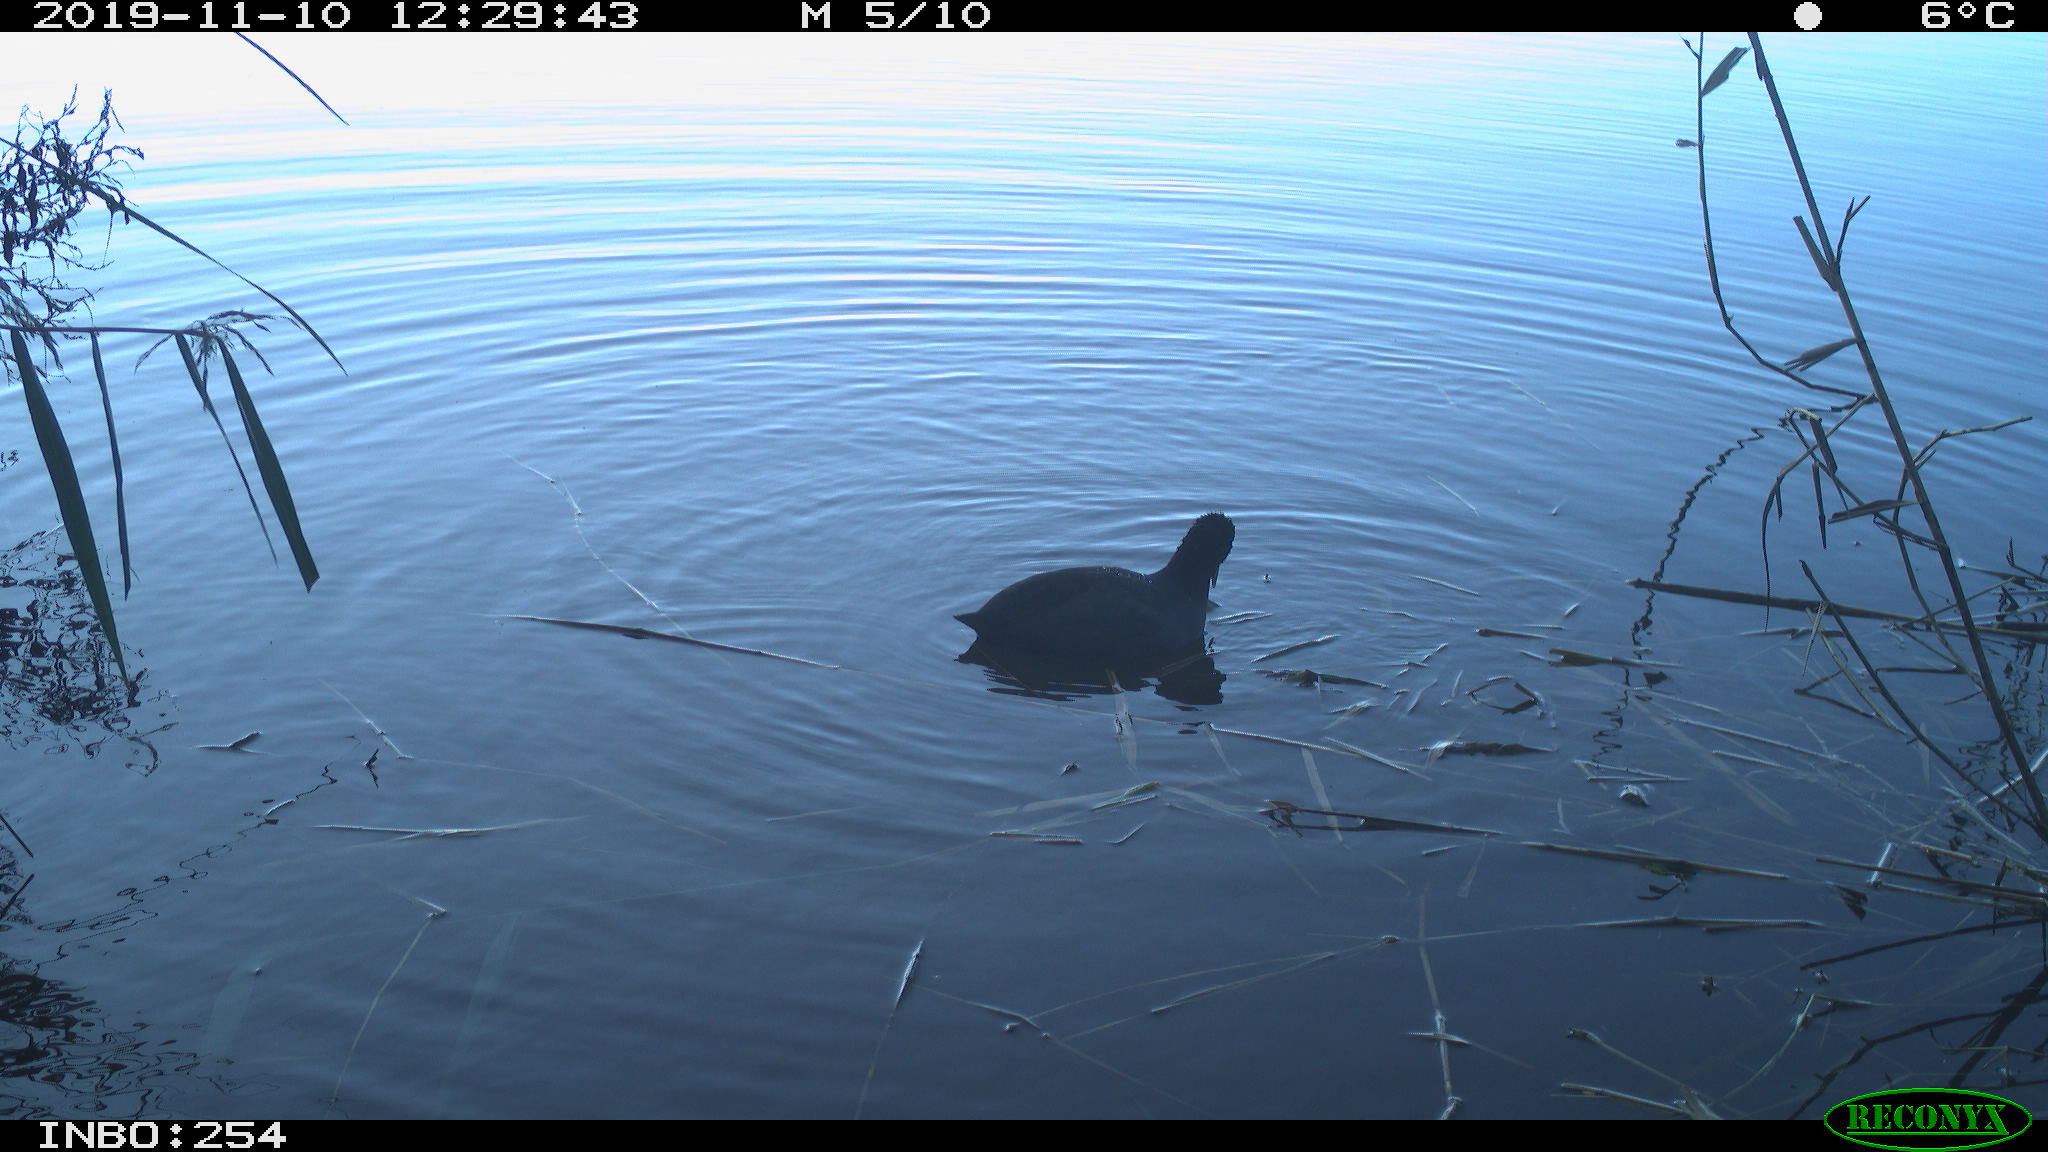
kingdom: Animalia
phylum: Chordata
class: Aves
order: Gruiformes
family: Rallidae
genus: Gallinula
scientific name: Gallinula chloropus
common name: Common moorhen
